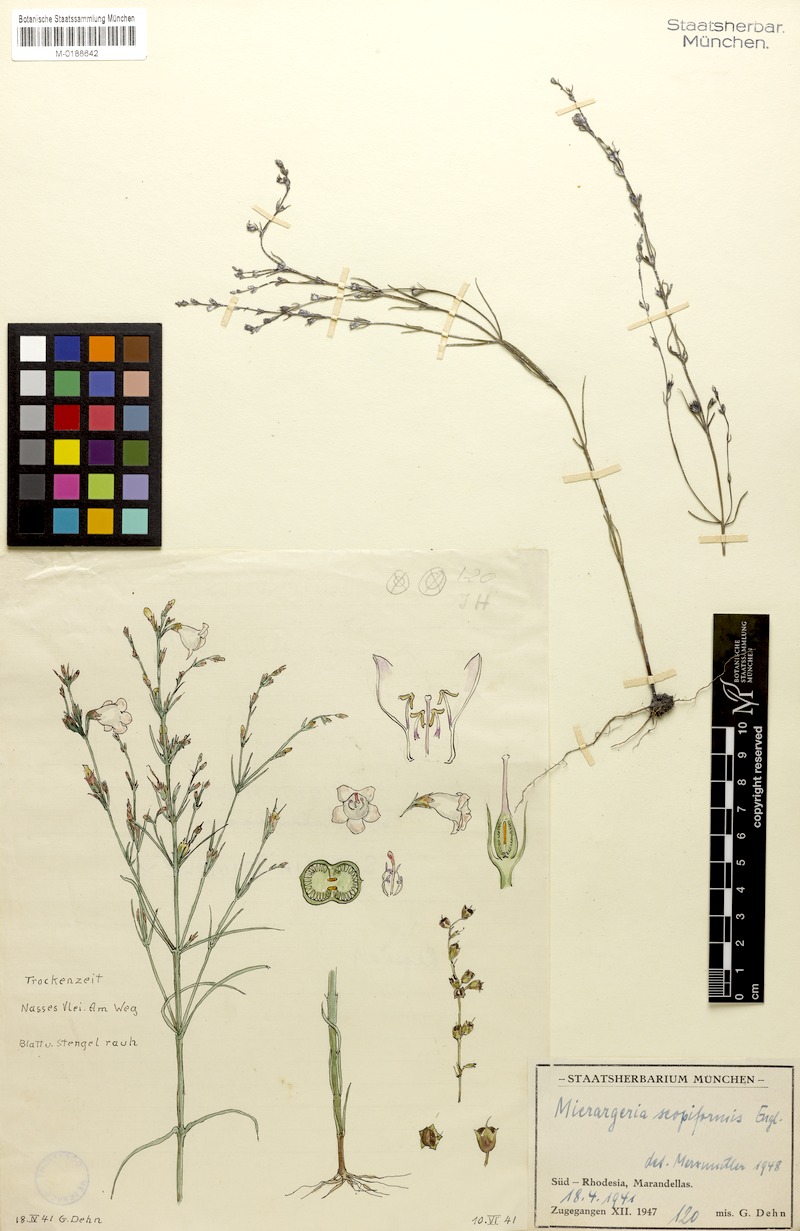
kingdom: Plantae
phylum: Tracheophyta
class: Magnoliopsida
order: Lamiales
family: Orobanchaceae
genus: Micrargeria
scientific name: Micrargeria filiformis
